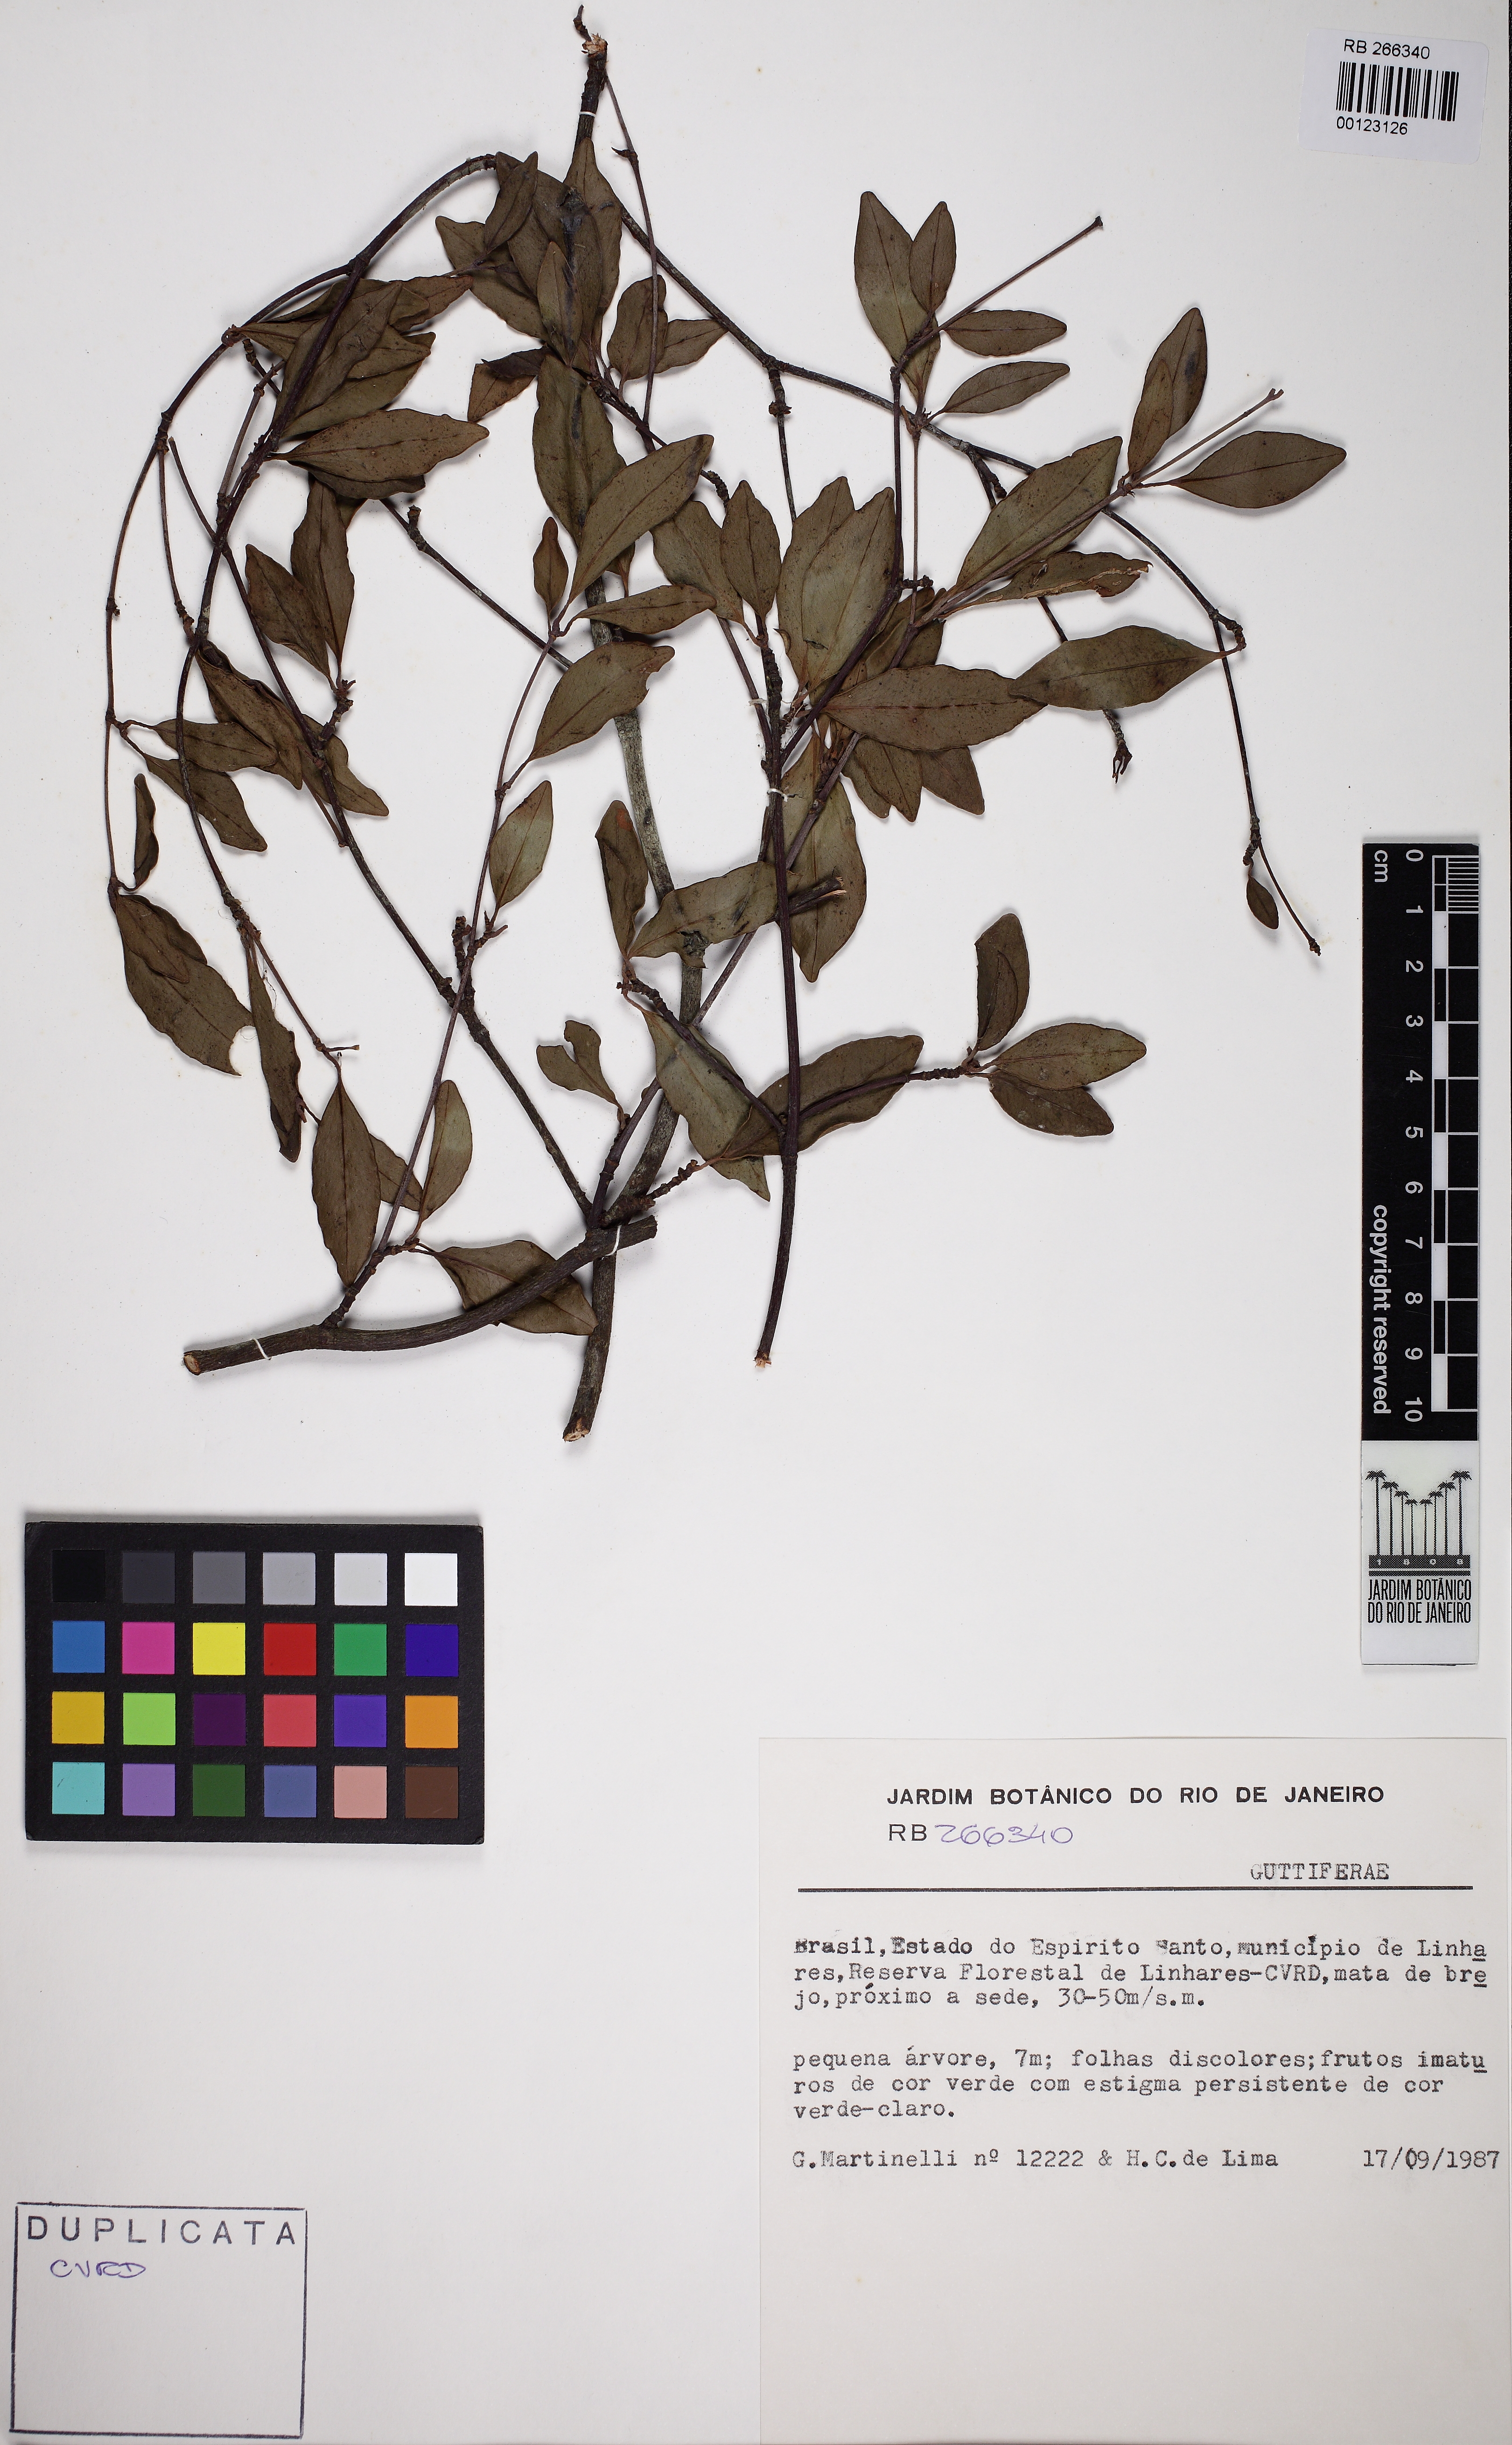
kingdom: Plantae
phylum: Tracheophyta
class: Magnoliopsida
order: Malpighiales
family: Clusiaceae
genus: Tovomita
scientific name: Tovomita fructipendula
